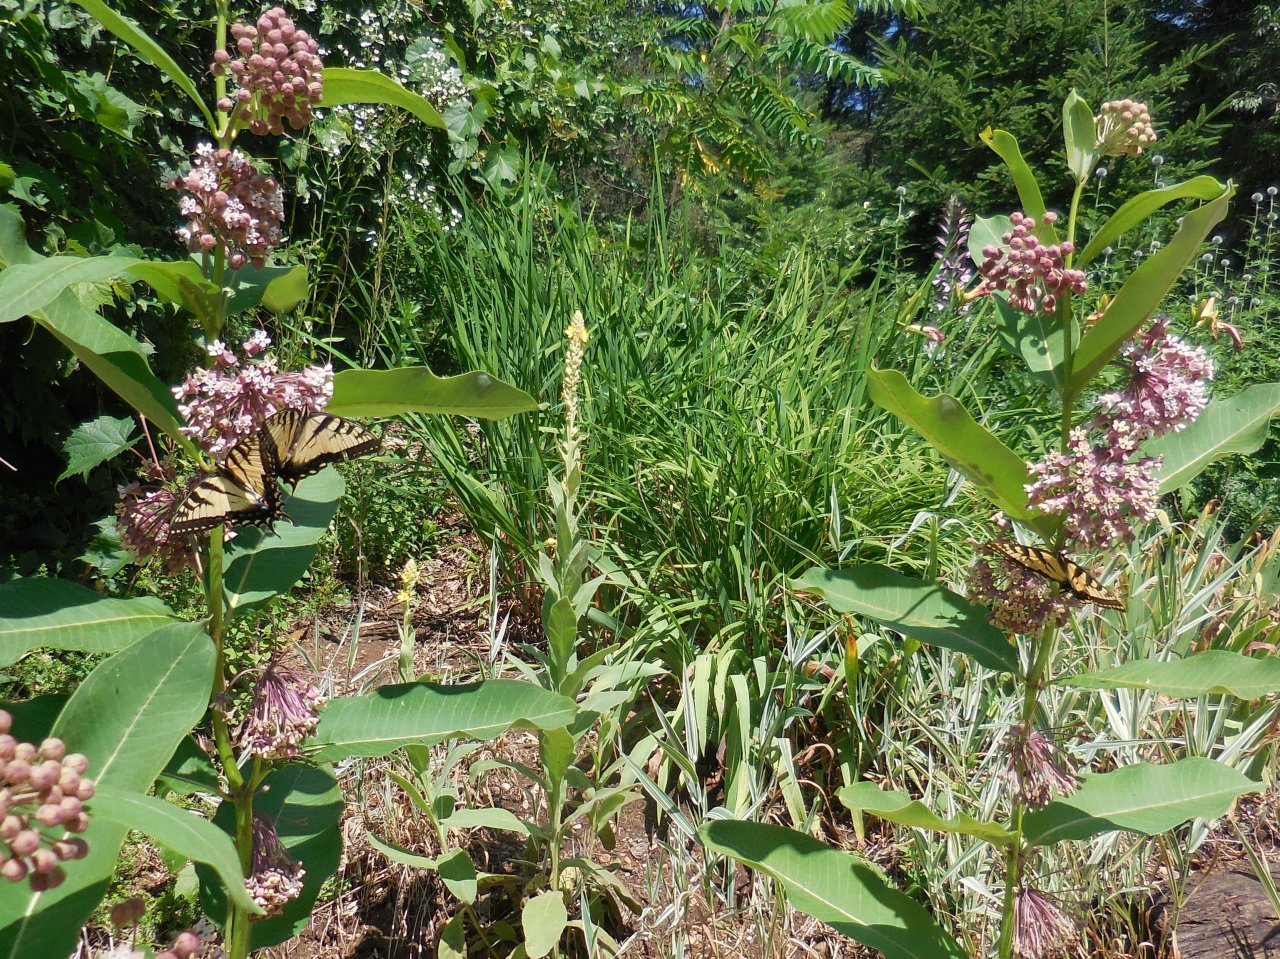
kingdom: Animalia
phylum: Arthropoda
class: Insecta
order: Lepidoptera
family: Papilionidae
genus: Pterourus
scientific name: Pterourus
